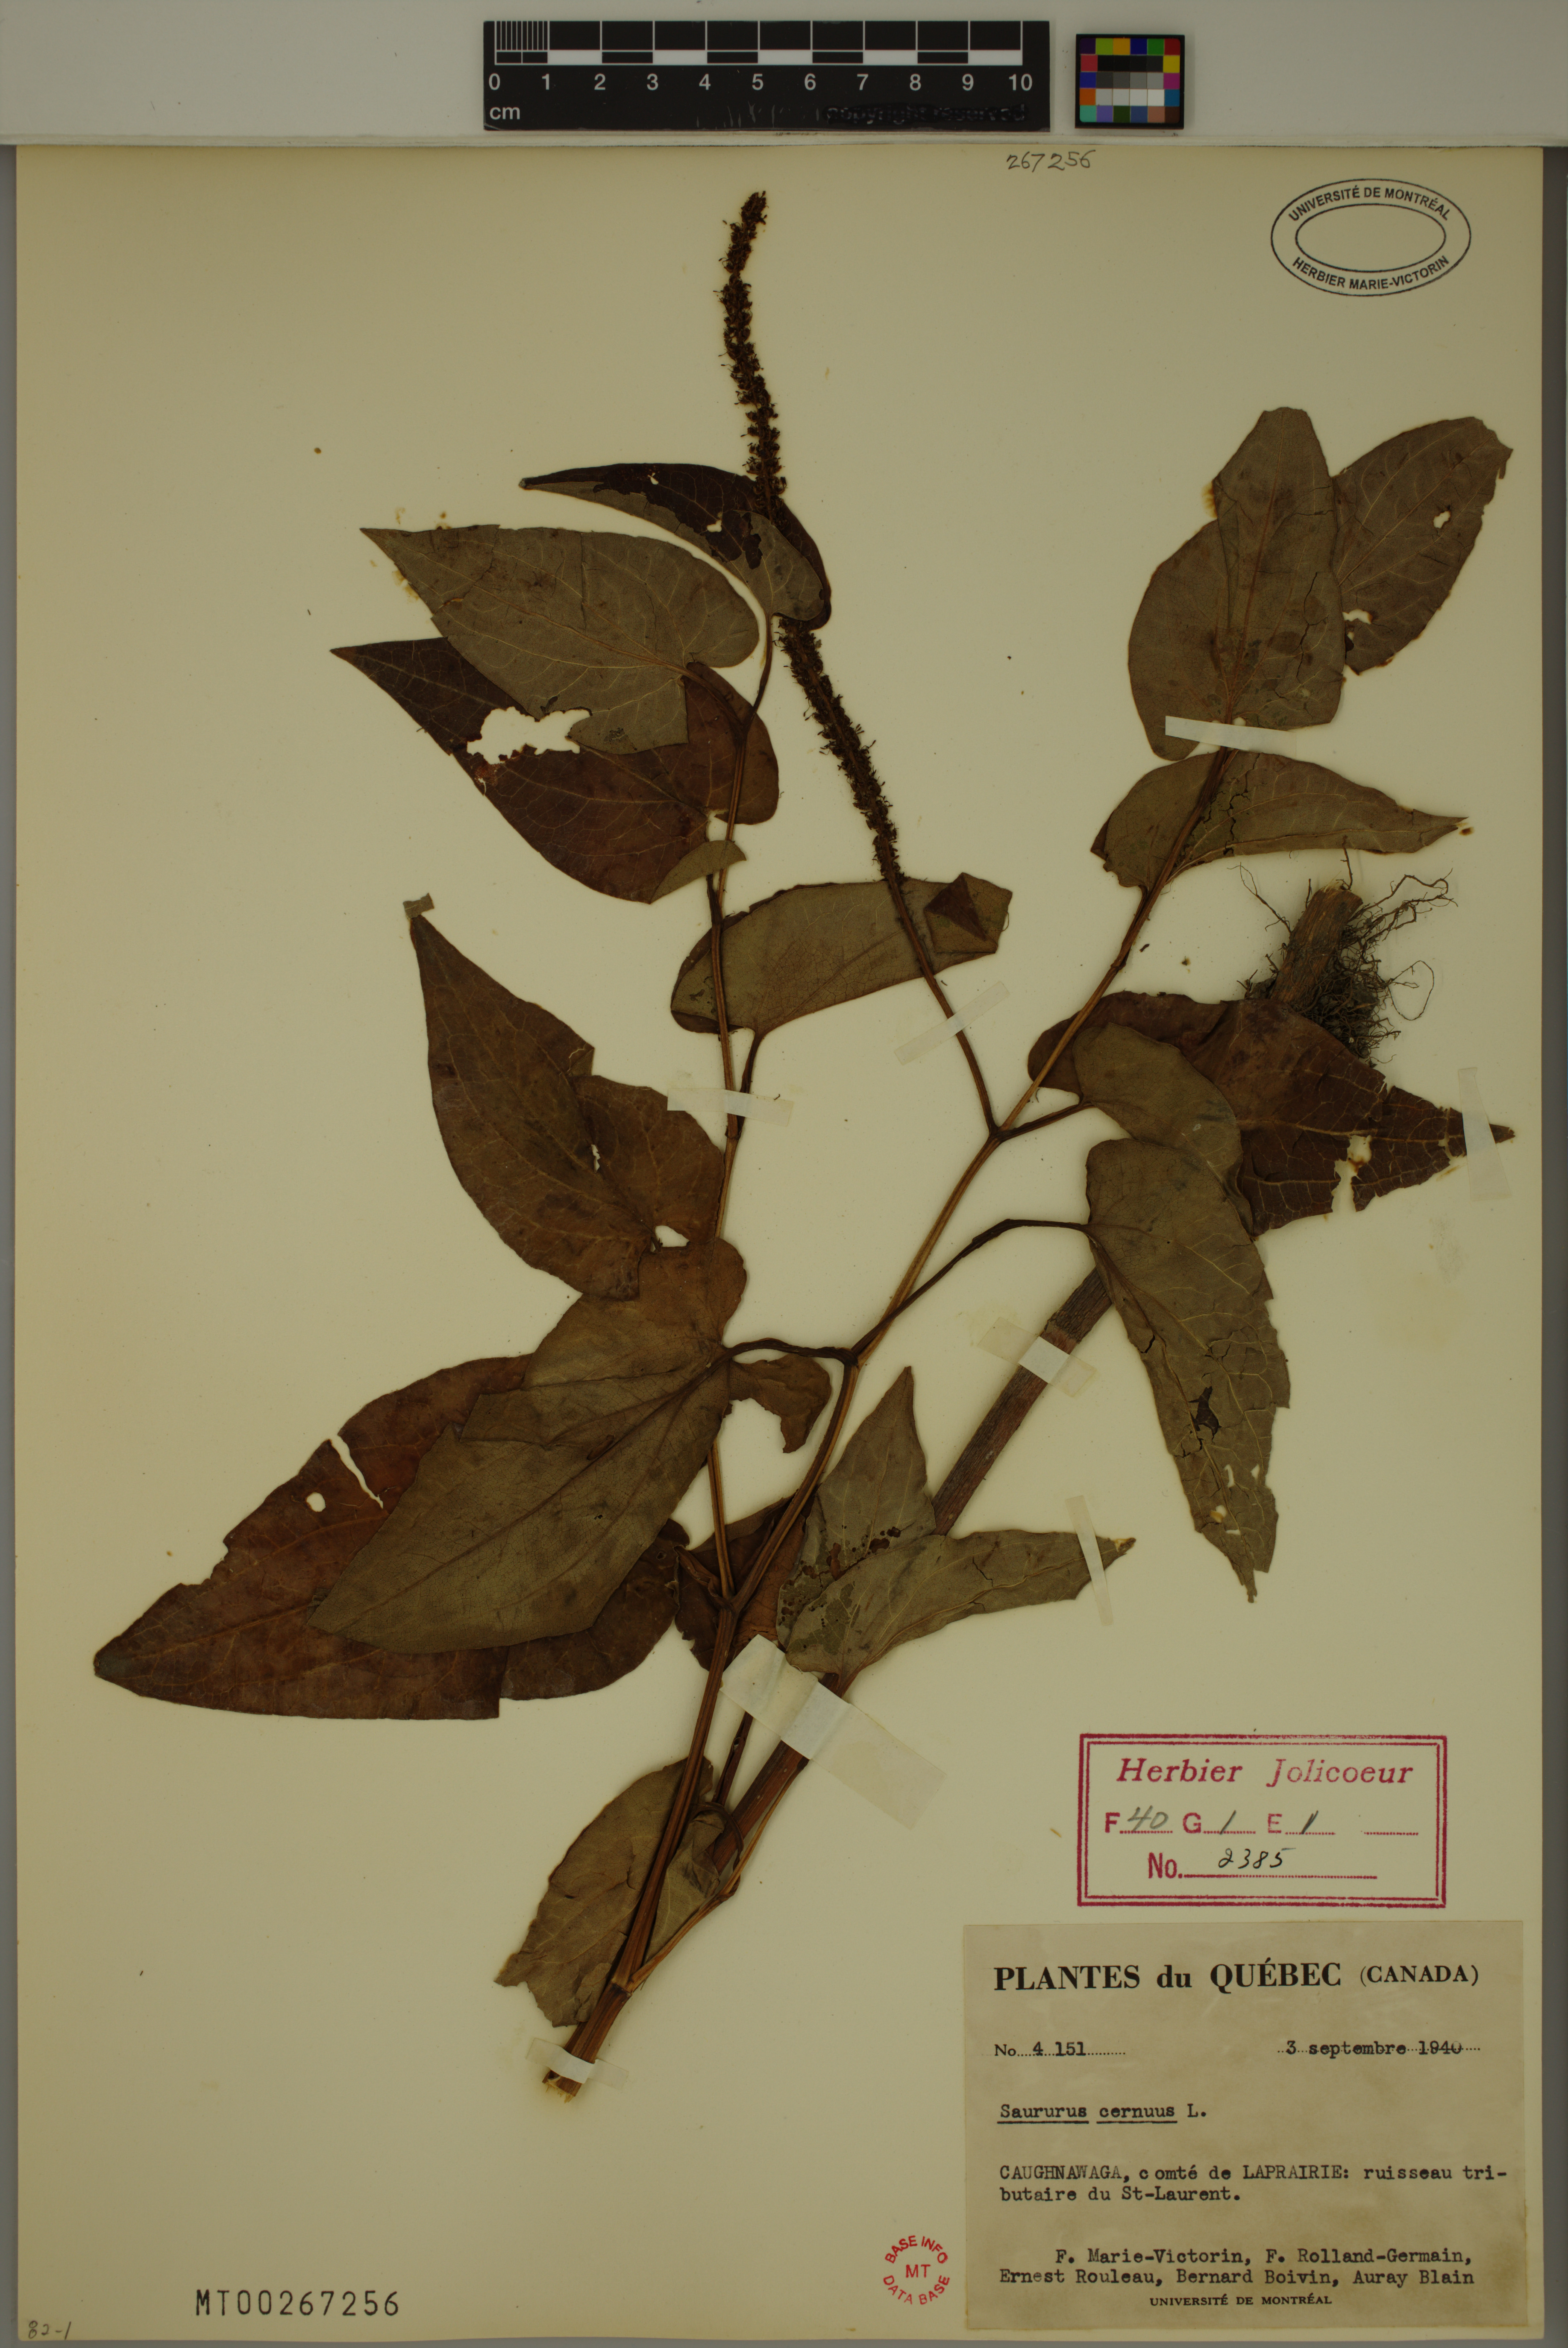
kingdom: Plantae
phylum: Tracheophyta
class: Magnoliopsida
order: Piperales
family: Saururaceae
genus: Saururus
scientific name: Saururus cernuus
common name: Lizard's-tail
